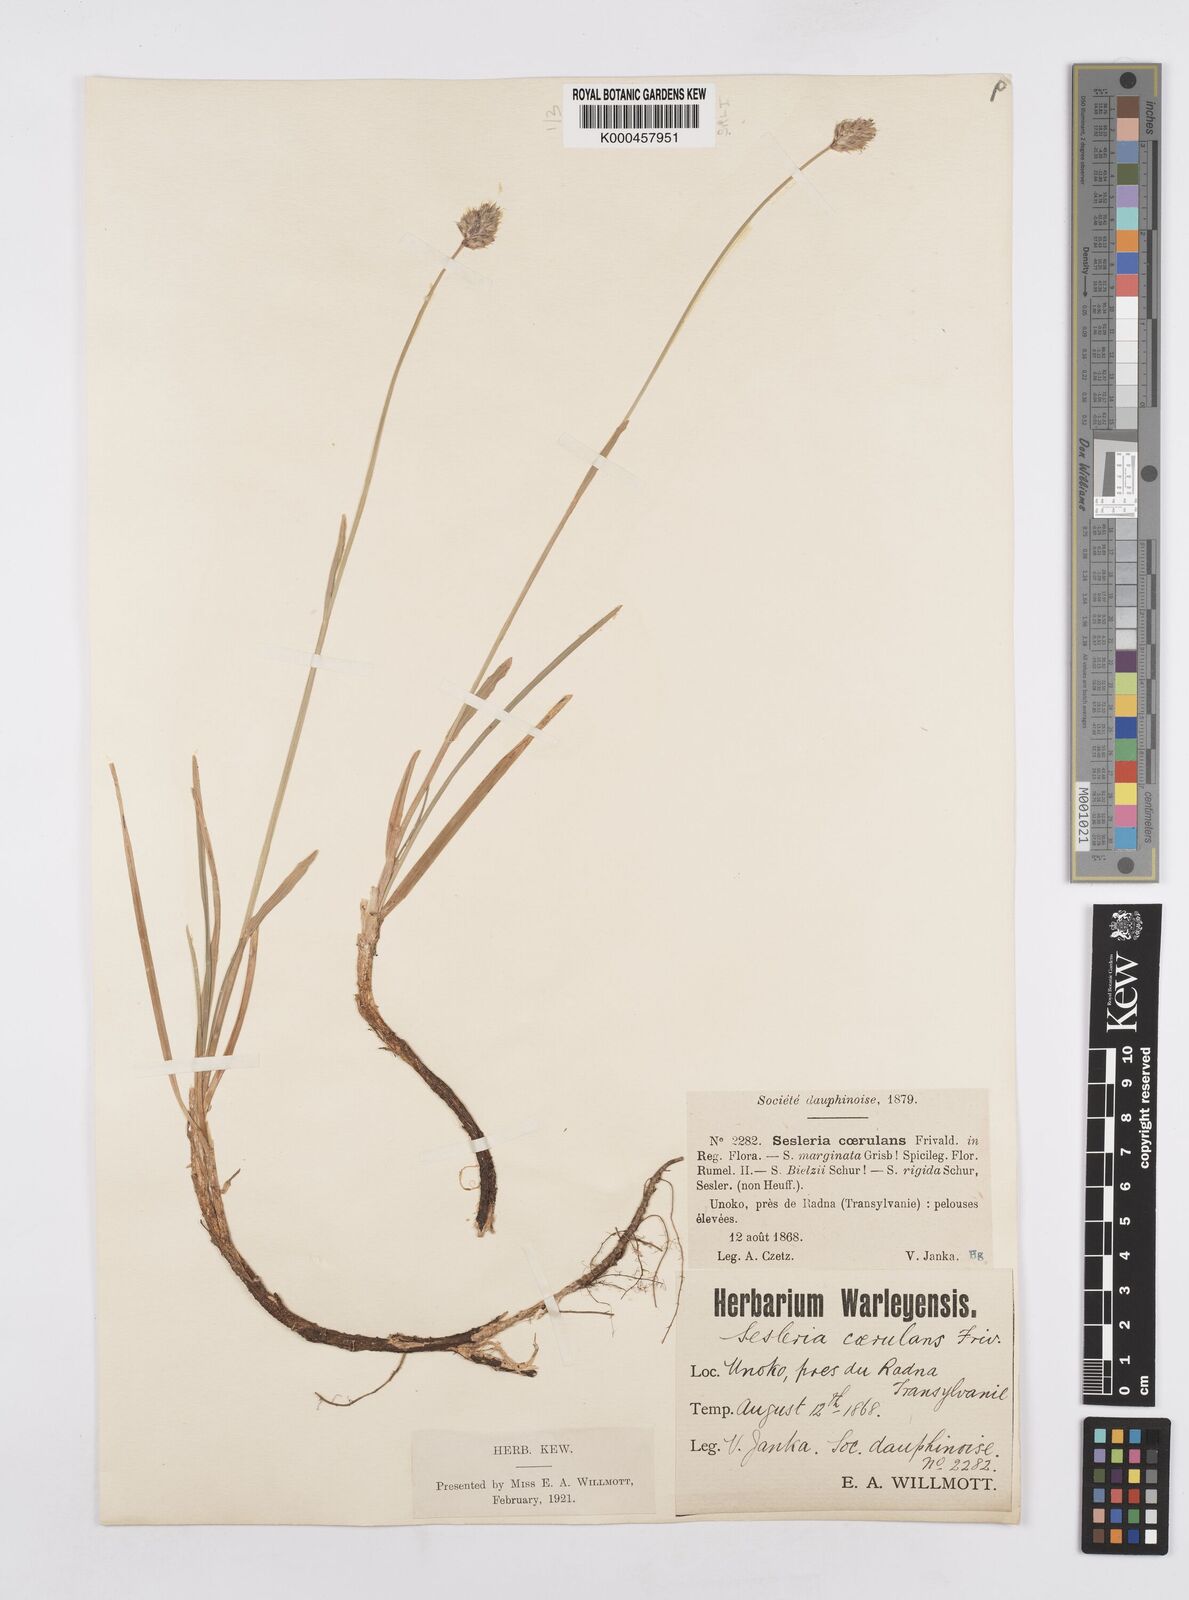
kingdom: Plantae
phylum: Tracheophyta
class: Liliopsida
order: Poales
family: Poaceae
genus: Sesleria
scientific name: Sesleria coerulans
